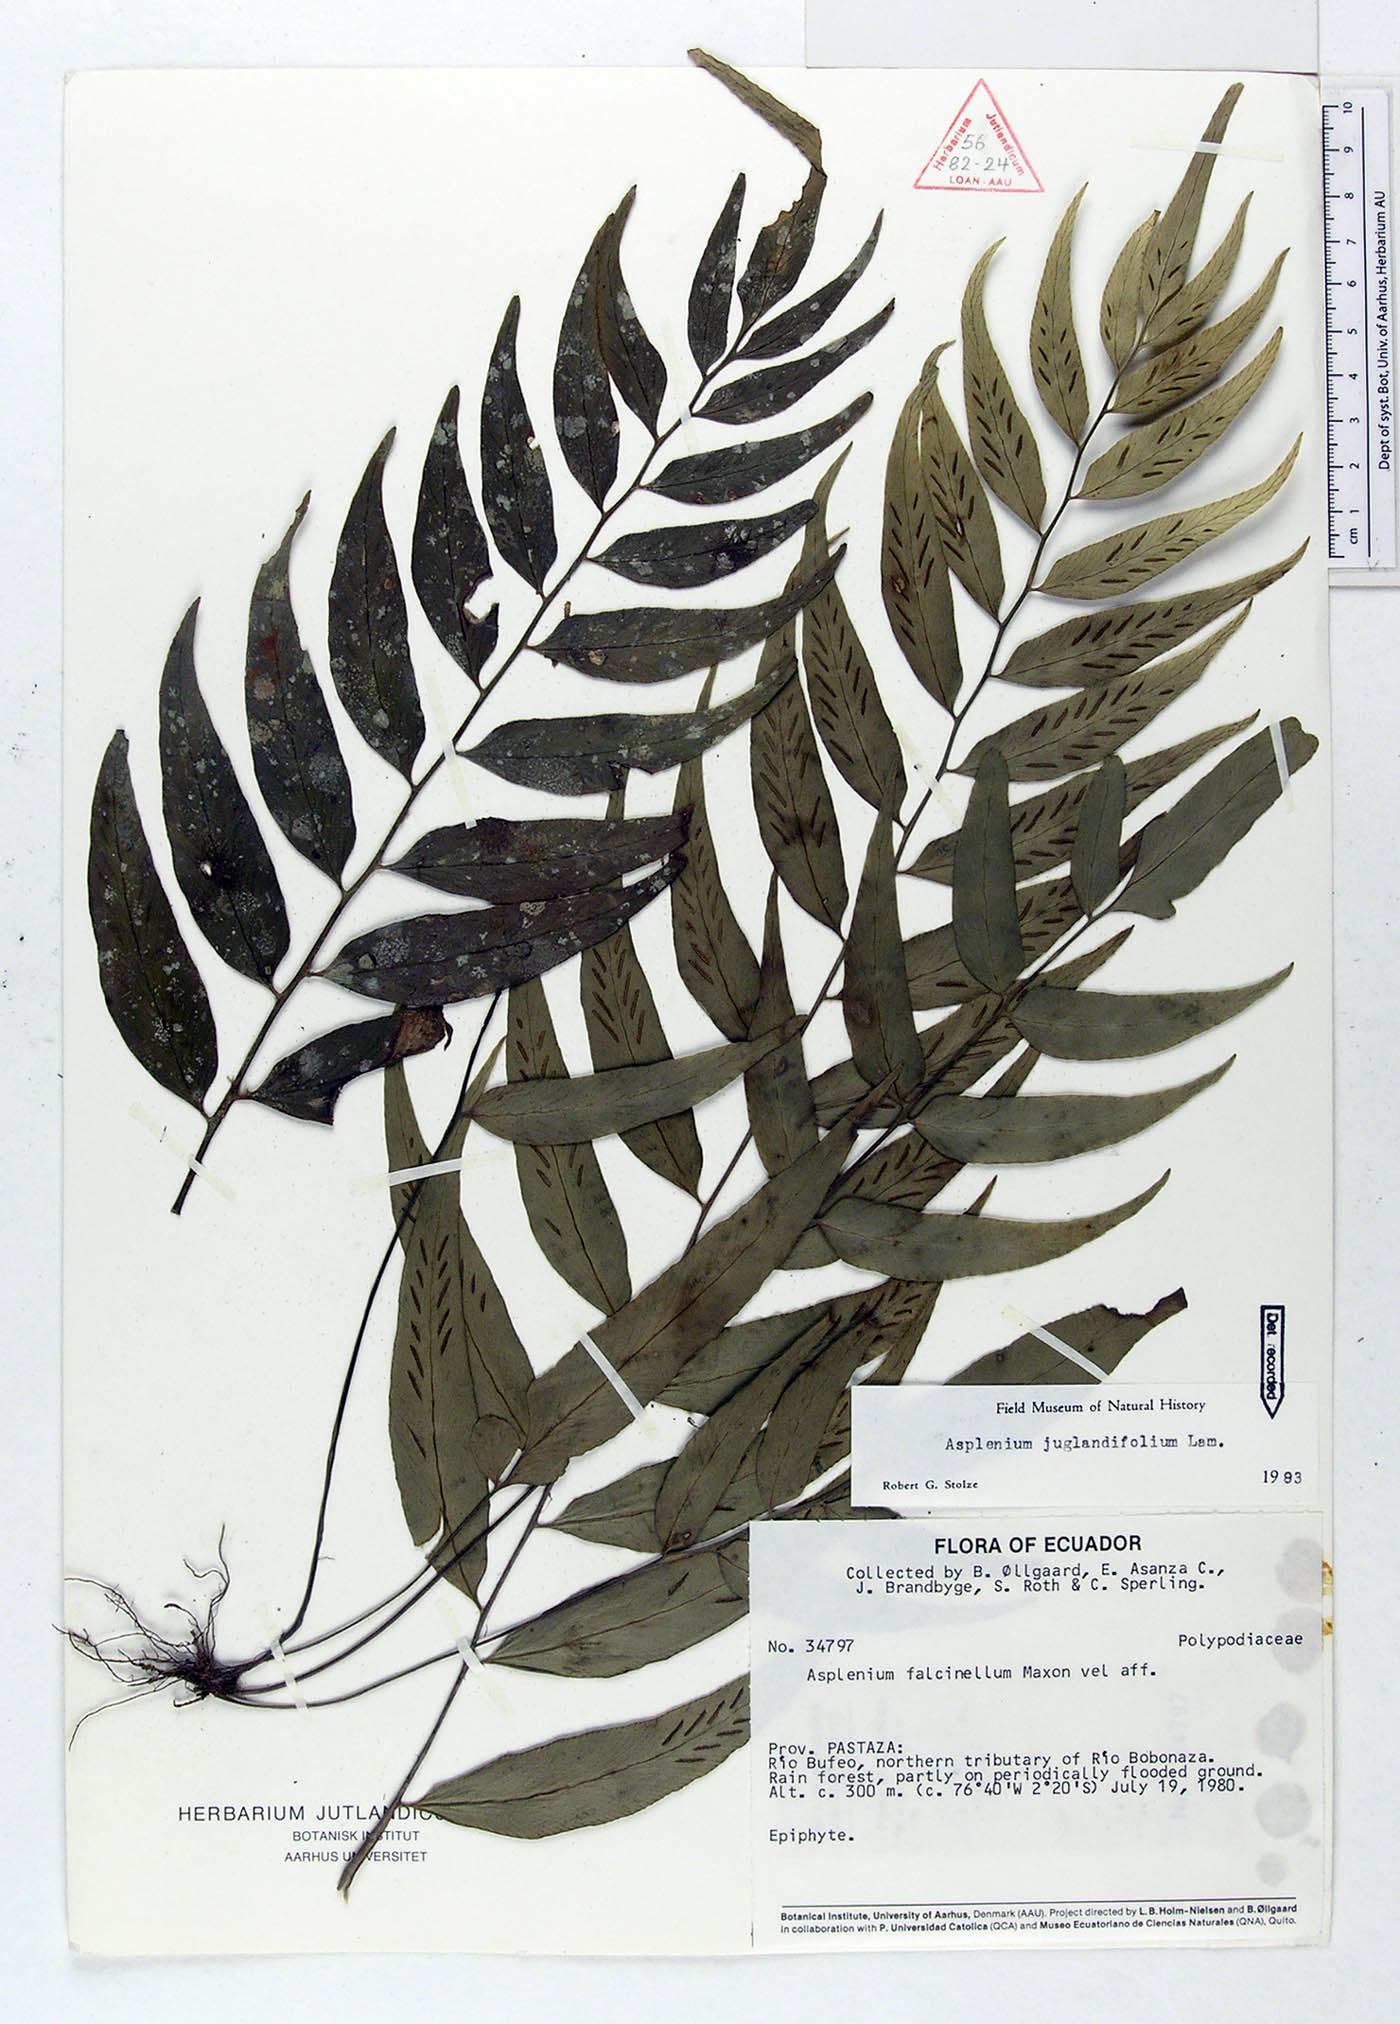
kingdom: Plantae
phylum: Tracheophyta
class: Polypodiopsida
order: Polypodiales
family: Aspleniaceae
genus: Asplenium
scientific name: Asplenium juglandifolium
